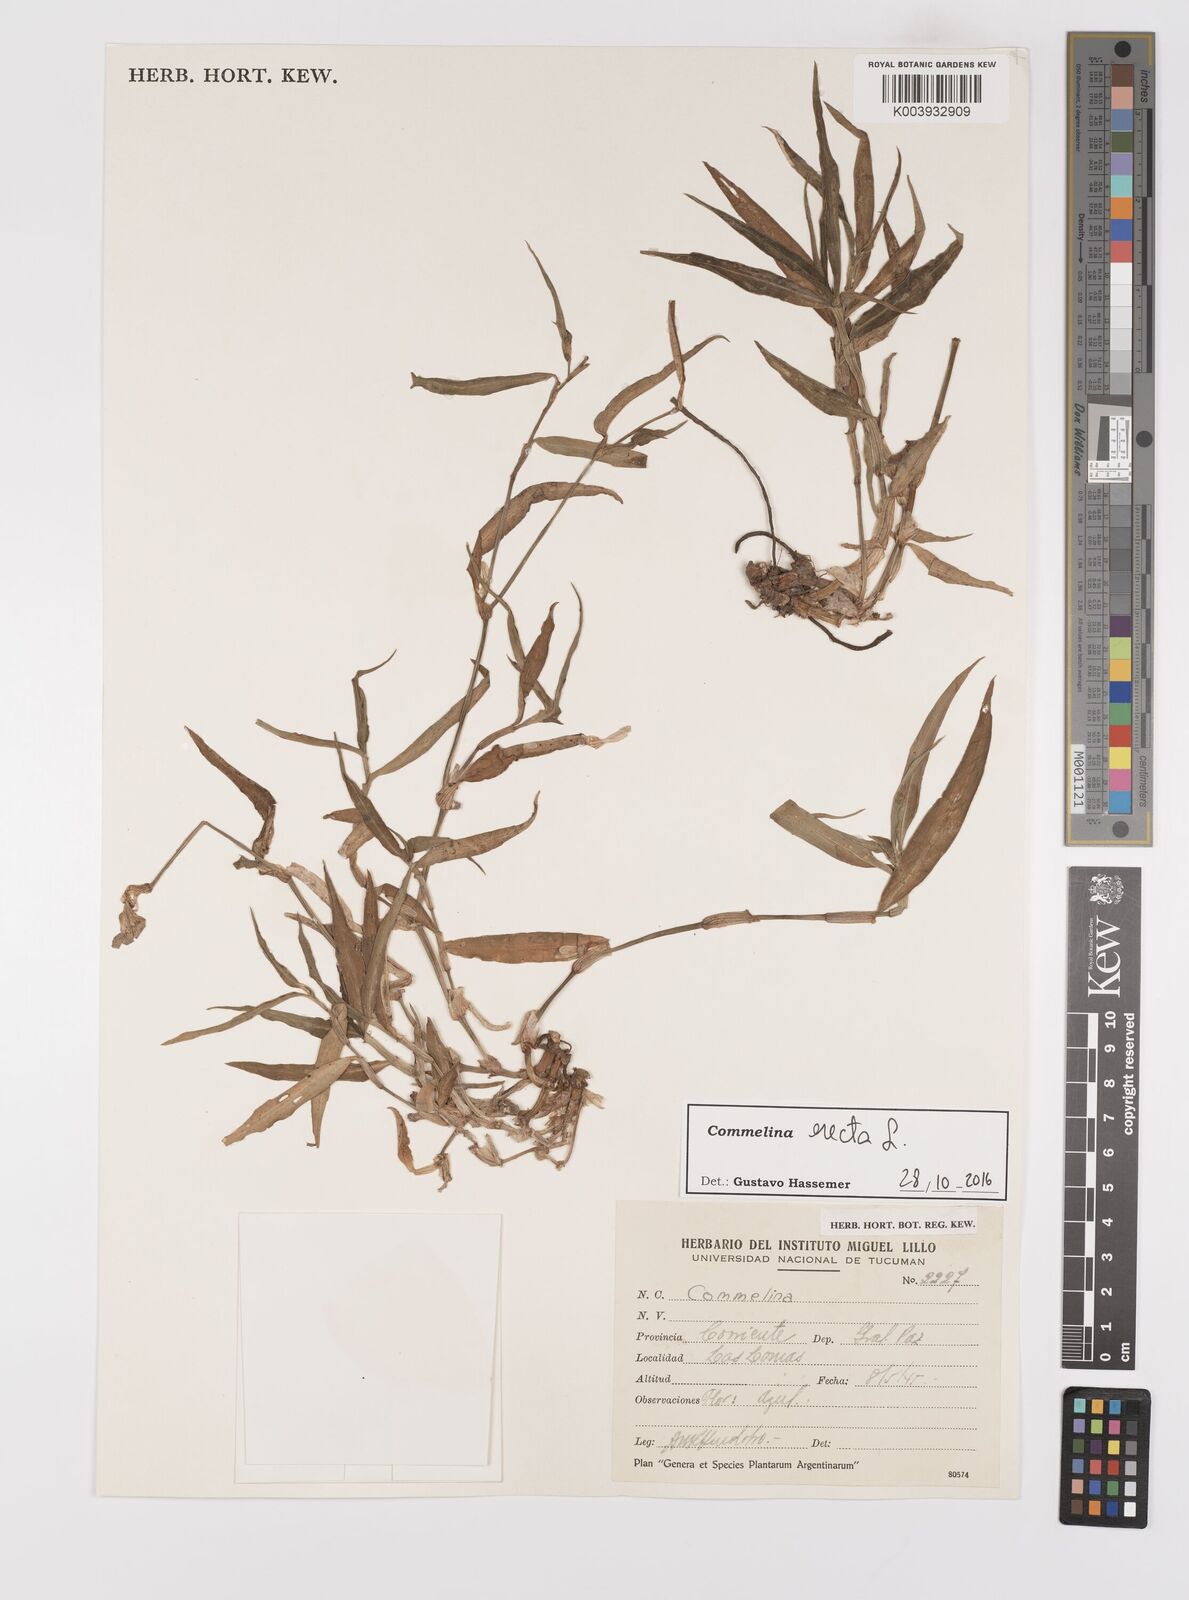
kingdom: Plantae
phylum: Tracheophyta
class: Liliopsida
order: Commelinales
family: Commelinaceae
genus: Commelina
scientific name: Commelina erecta
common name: Blousel blommetjie
